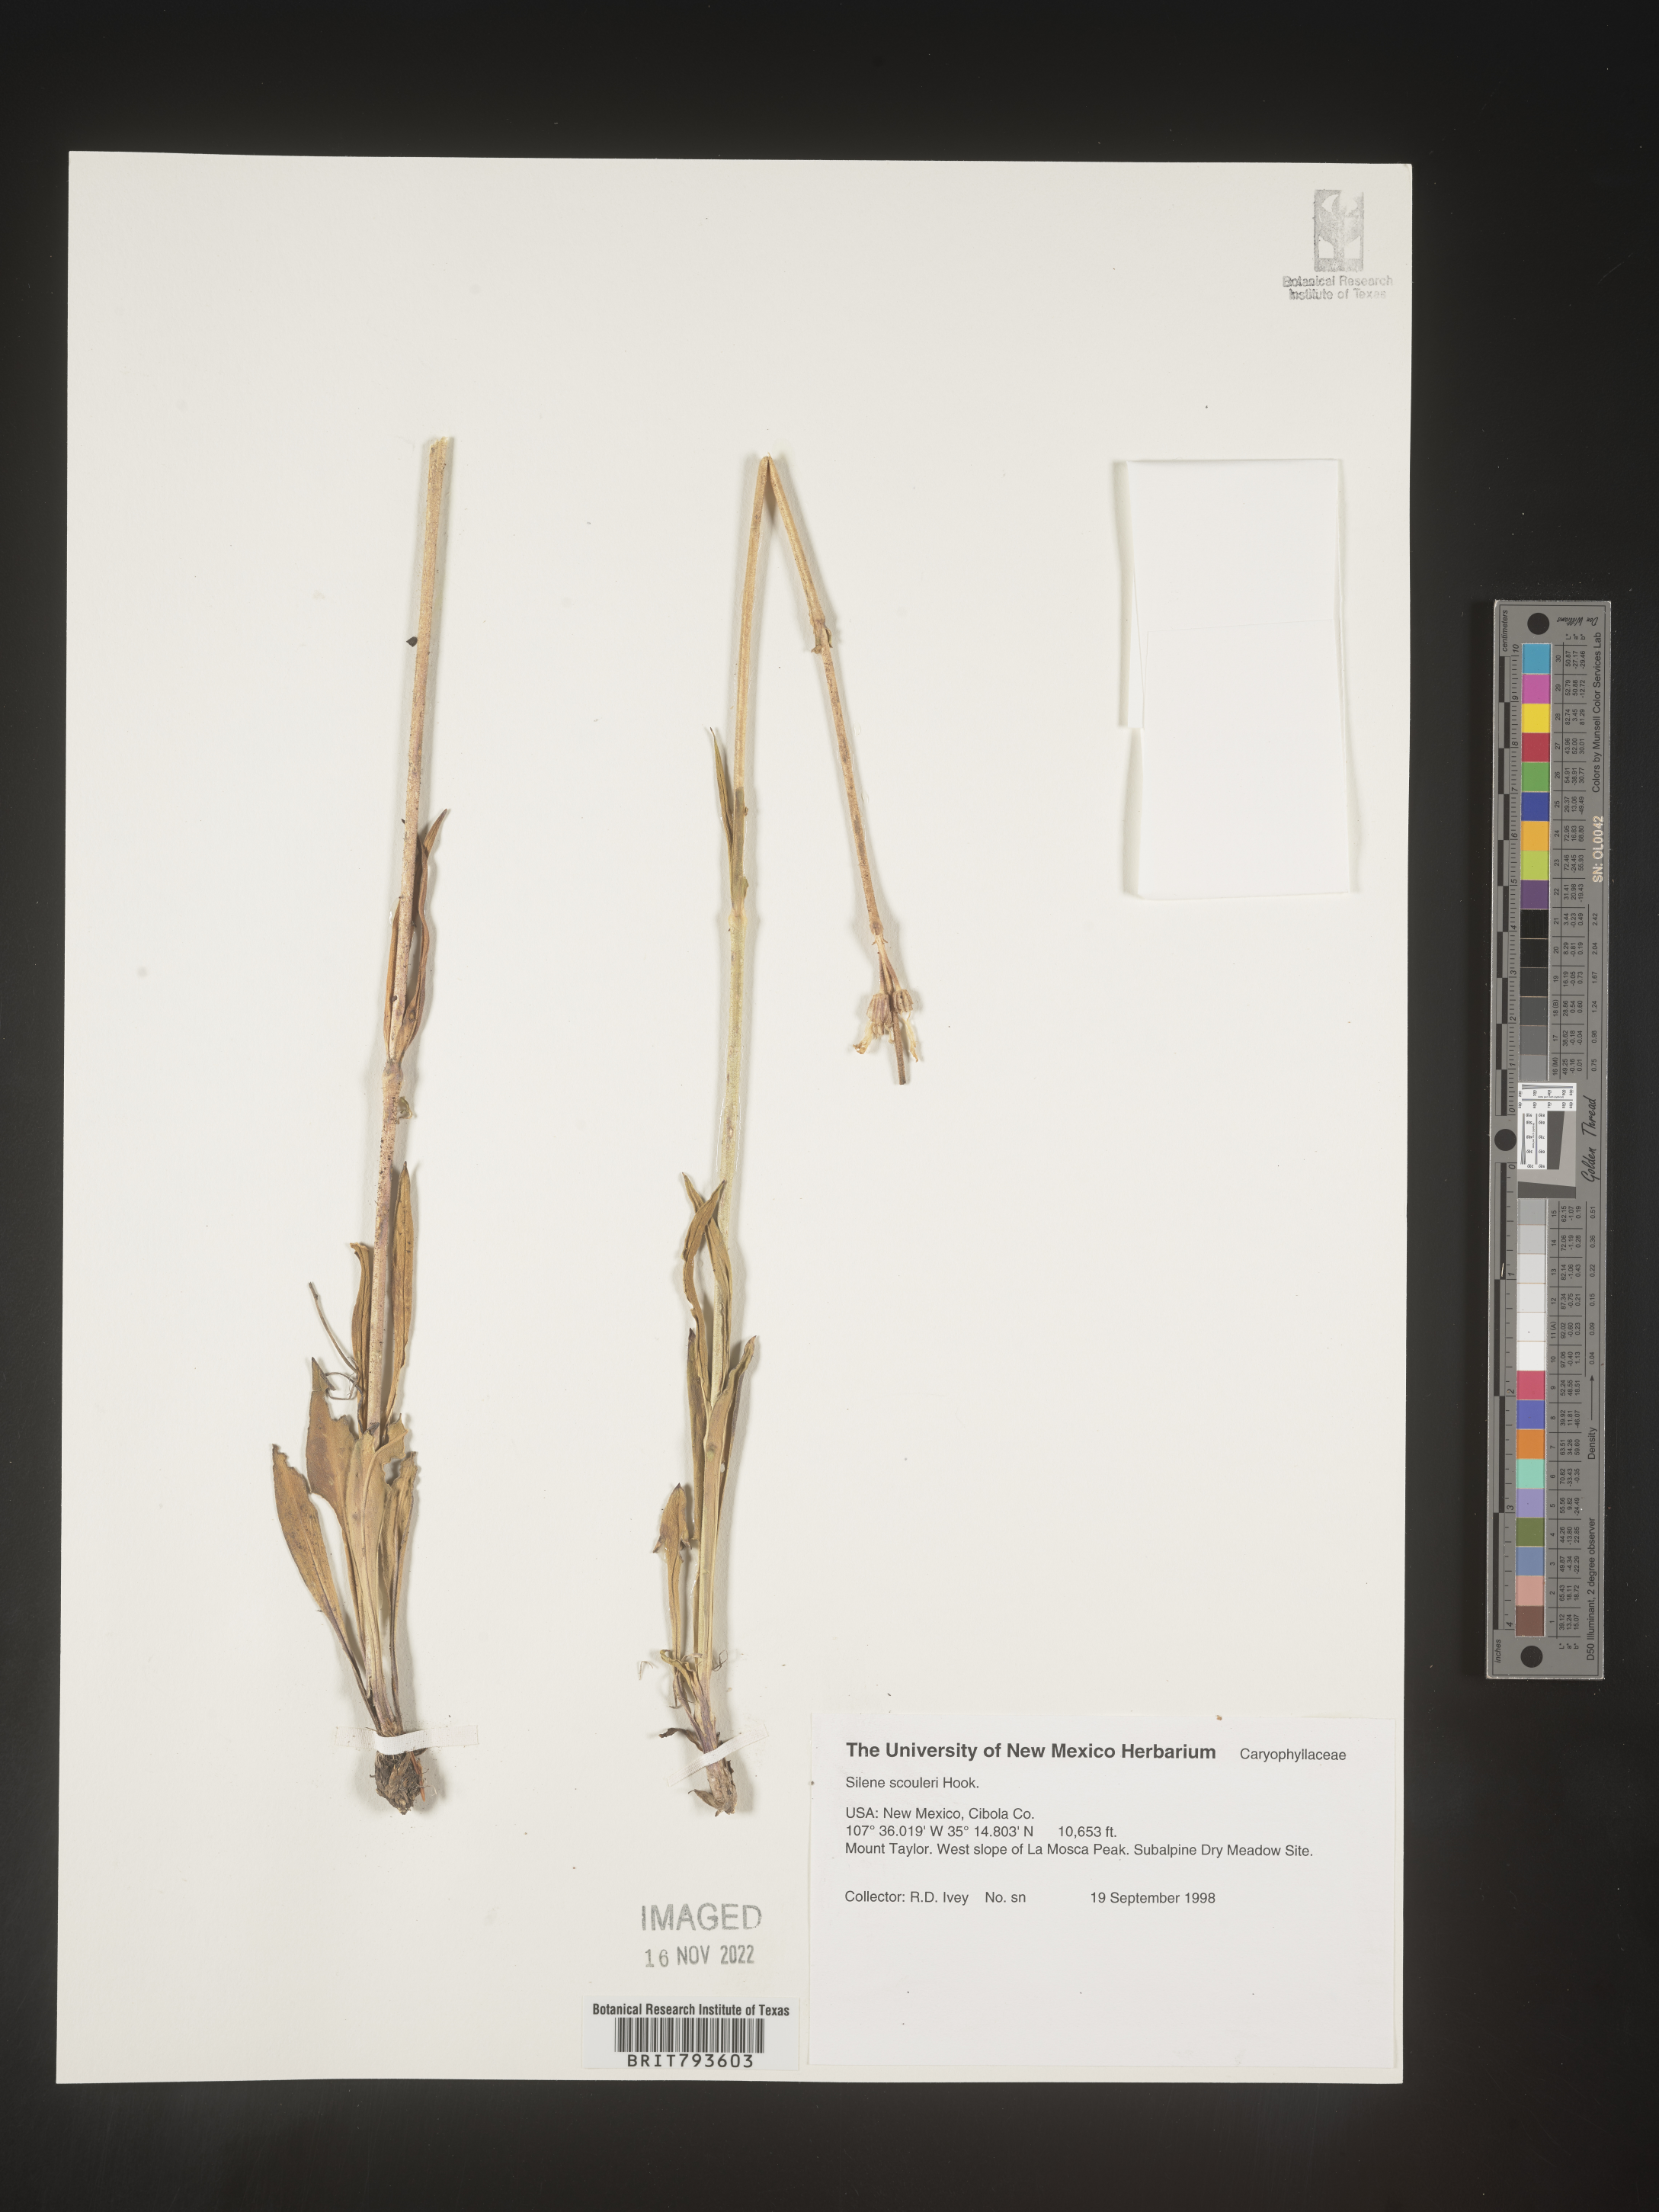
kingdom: Plantae
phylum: Tracheophyta
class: Magnoliopsida
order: Caryophyllales
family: Caryophyllaceae
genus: Silene
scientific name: Silene scouleri
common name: Scouler's campion
